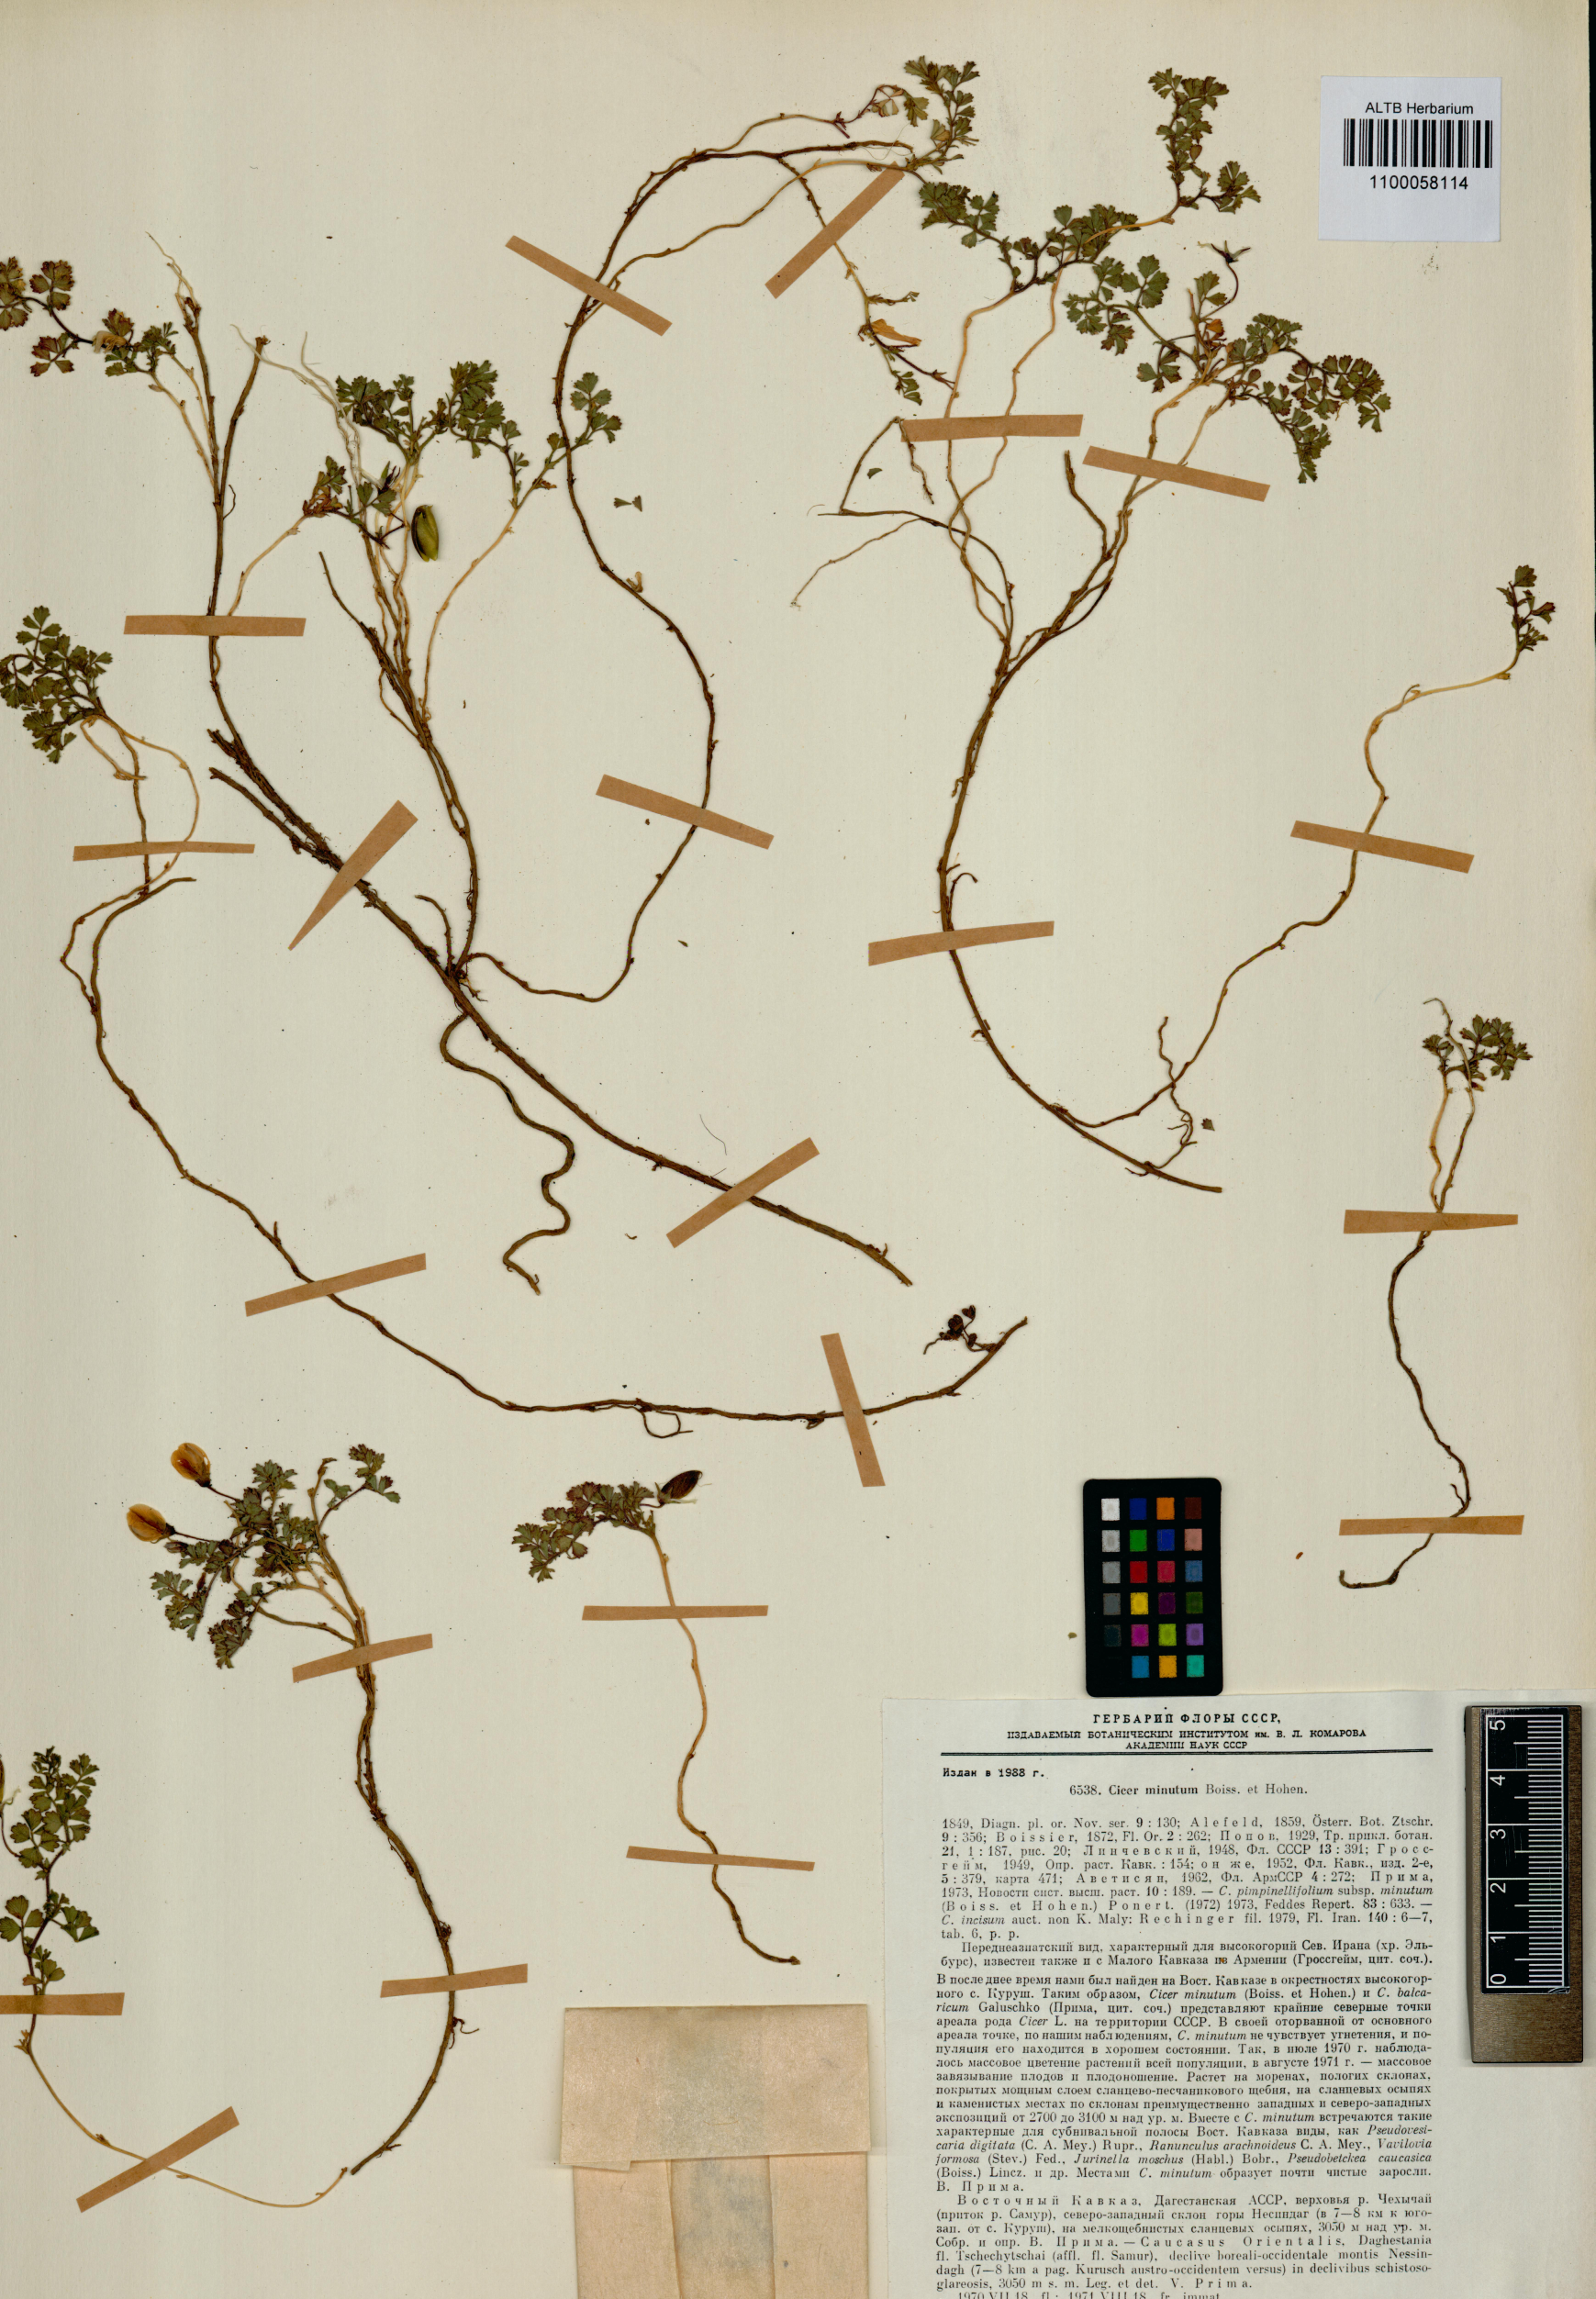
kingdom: Plantae
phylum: Tracheophyta
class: Magnoliopsida
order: Fabales
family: Fabaceae
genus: Cicer
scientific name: Cicer incisum
